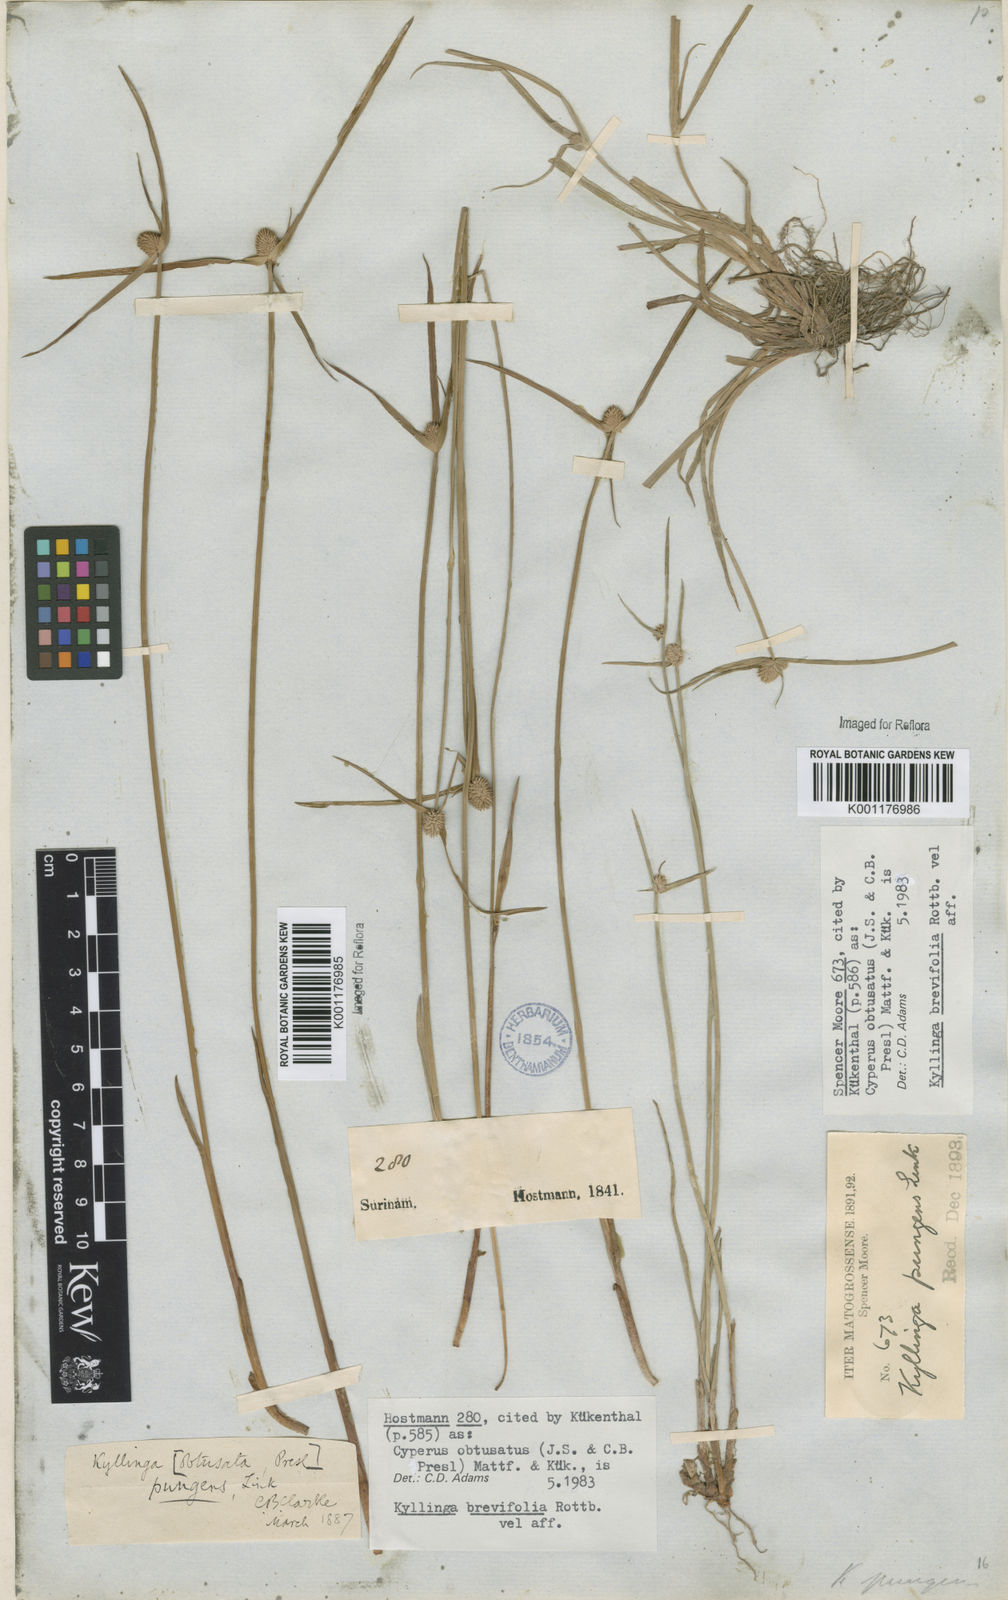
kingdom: Plantae
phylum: Tracheophyta
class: Liliopsida
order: Poales
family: Cyperaceae
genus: Cyperus
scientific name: Cyperus obtusatus
